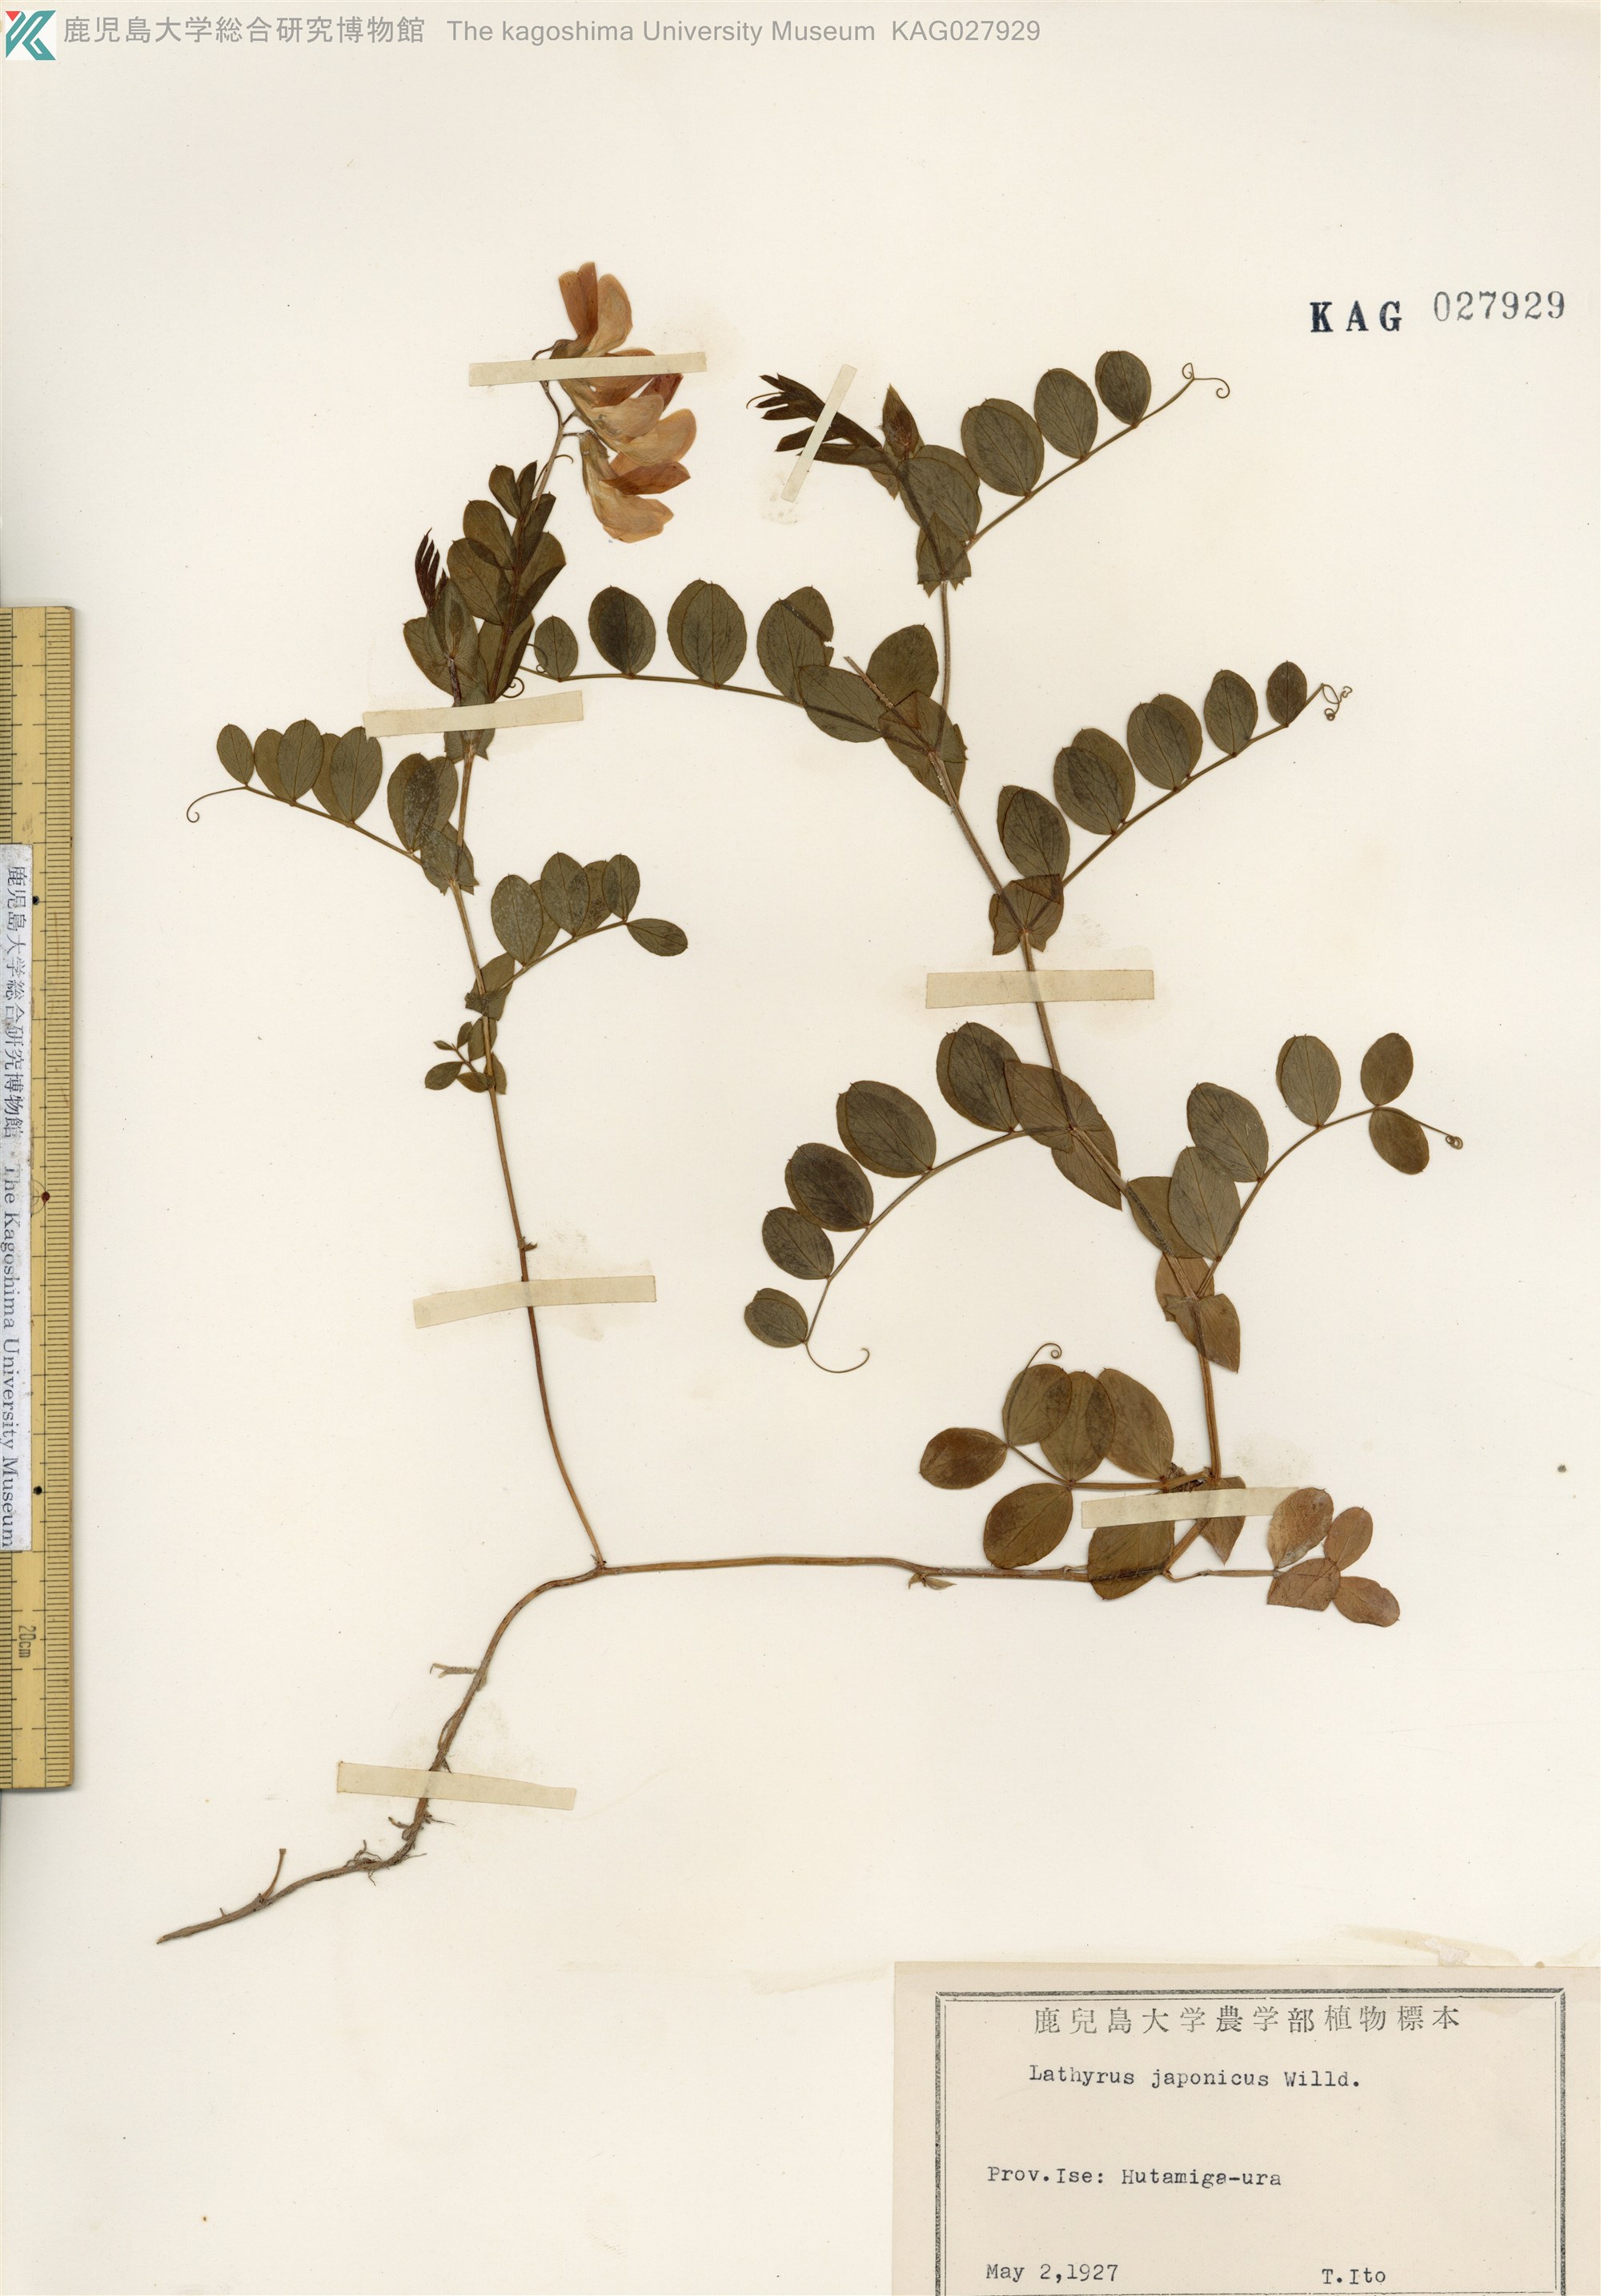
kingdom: Plantae
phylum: Tracheophyta
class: Magnoliopsida
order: Fabales
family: Fabaceae
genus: Lathyrus
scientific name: Lathyrus japonicus
